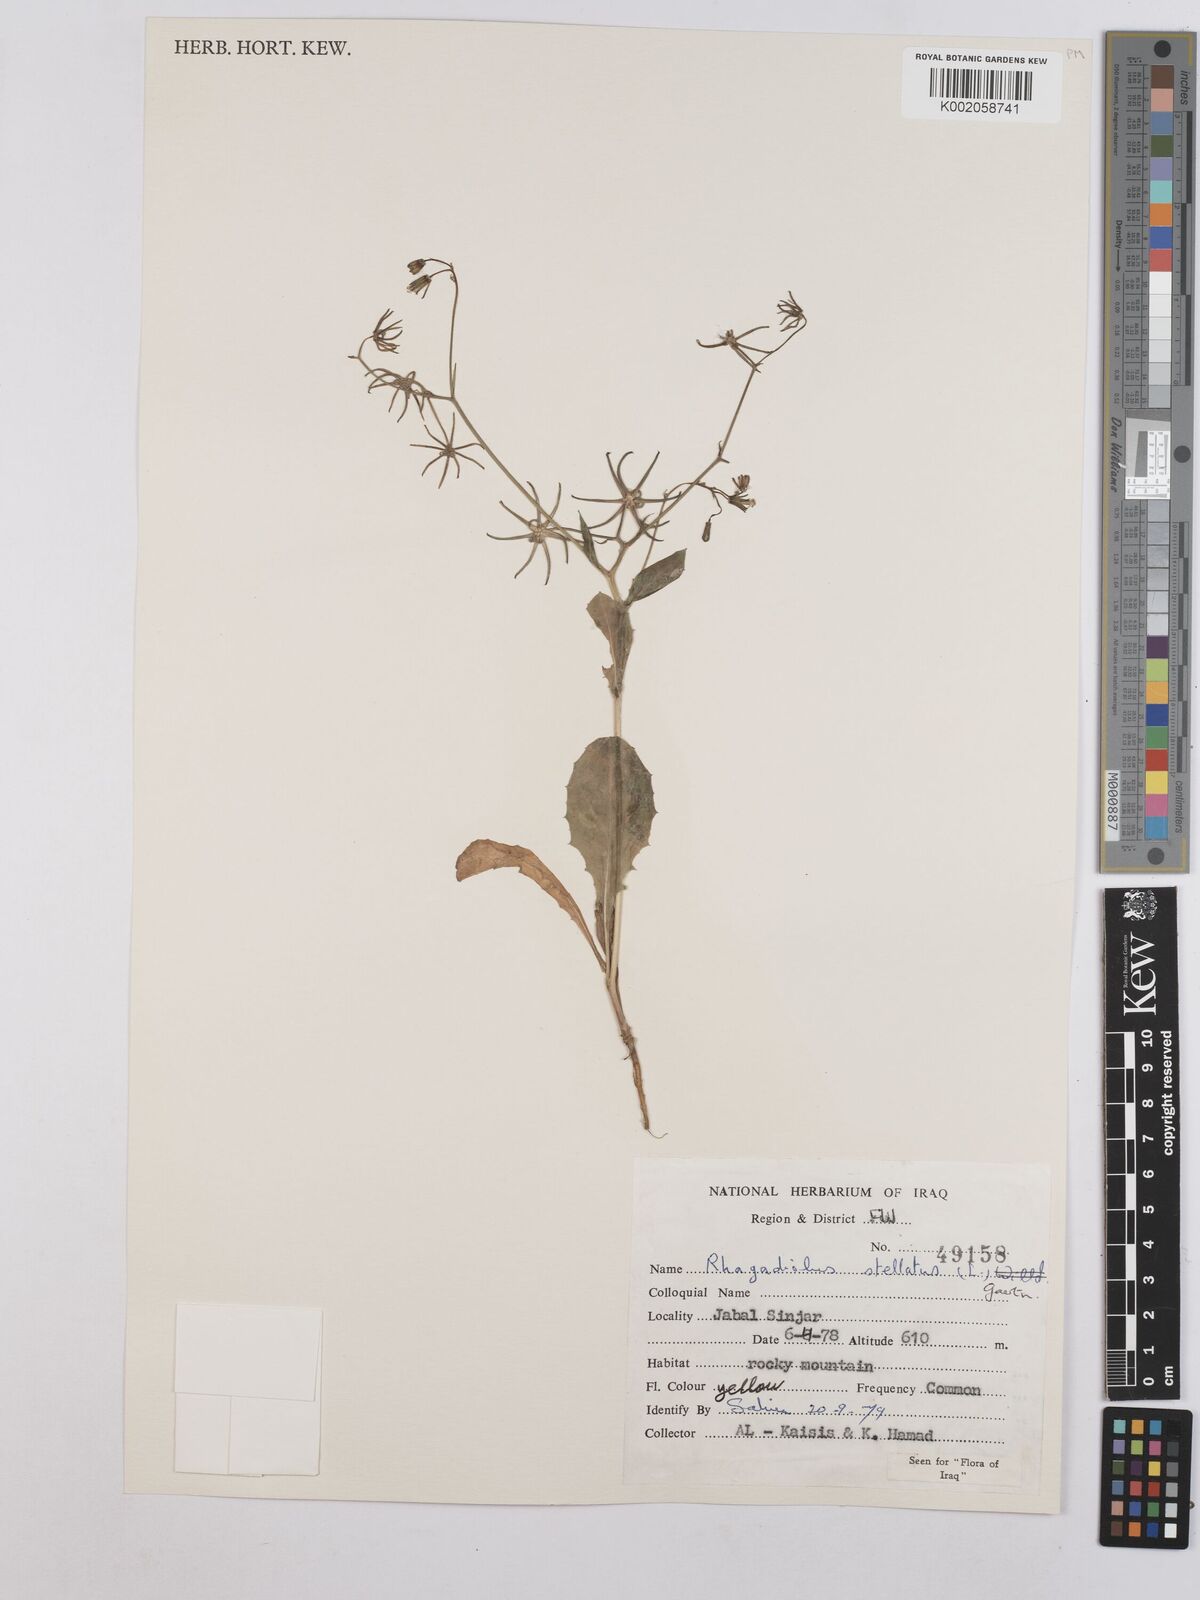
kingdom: Plantae
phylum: Tracheophyta
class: Magnoliopsida
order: Asterales
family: Asteraceae
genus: Rhagadiolus
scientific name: Rhagadiolus stellatus
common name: Star hawkbit
